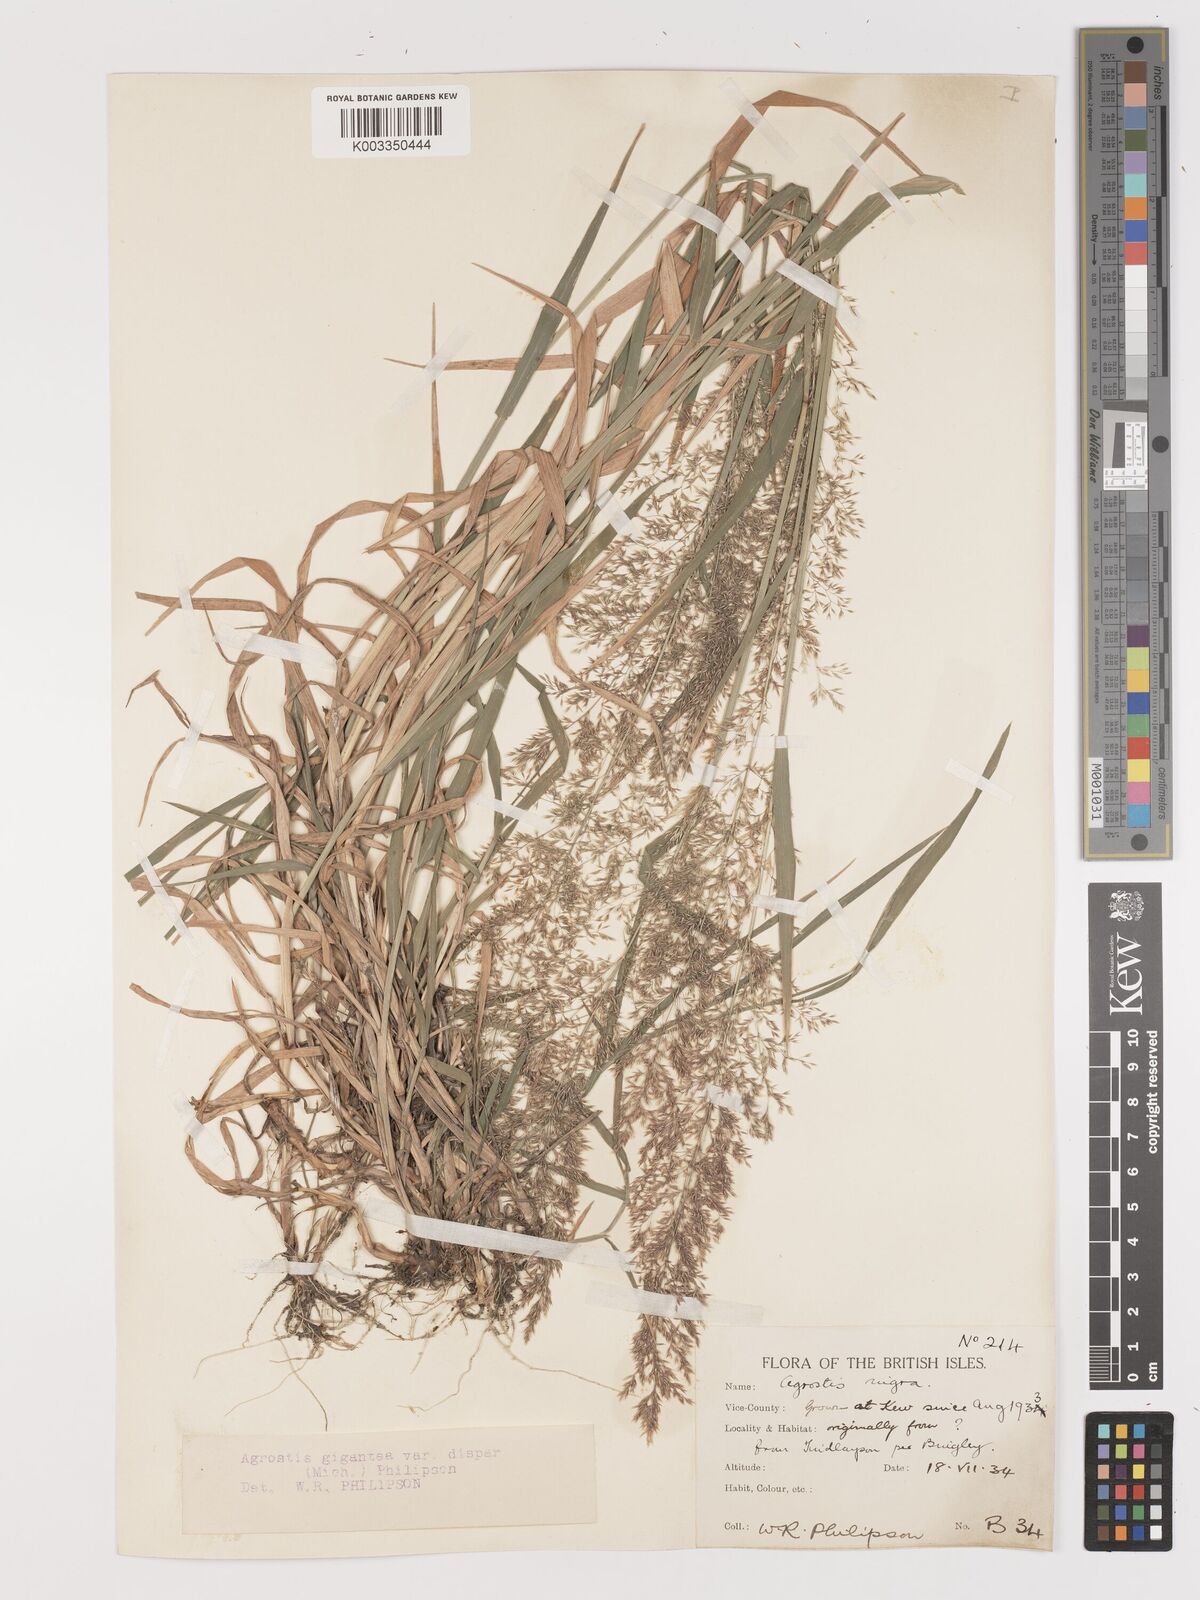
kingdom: Plantae
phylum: Tracheophyta
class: Liliopsida
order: Poales
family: Poaceae
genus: Agrostis
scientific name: Agrostis gigantea
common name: Black bent
